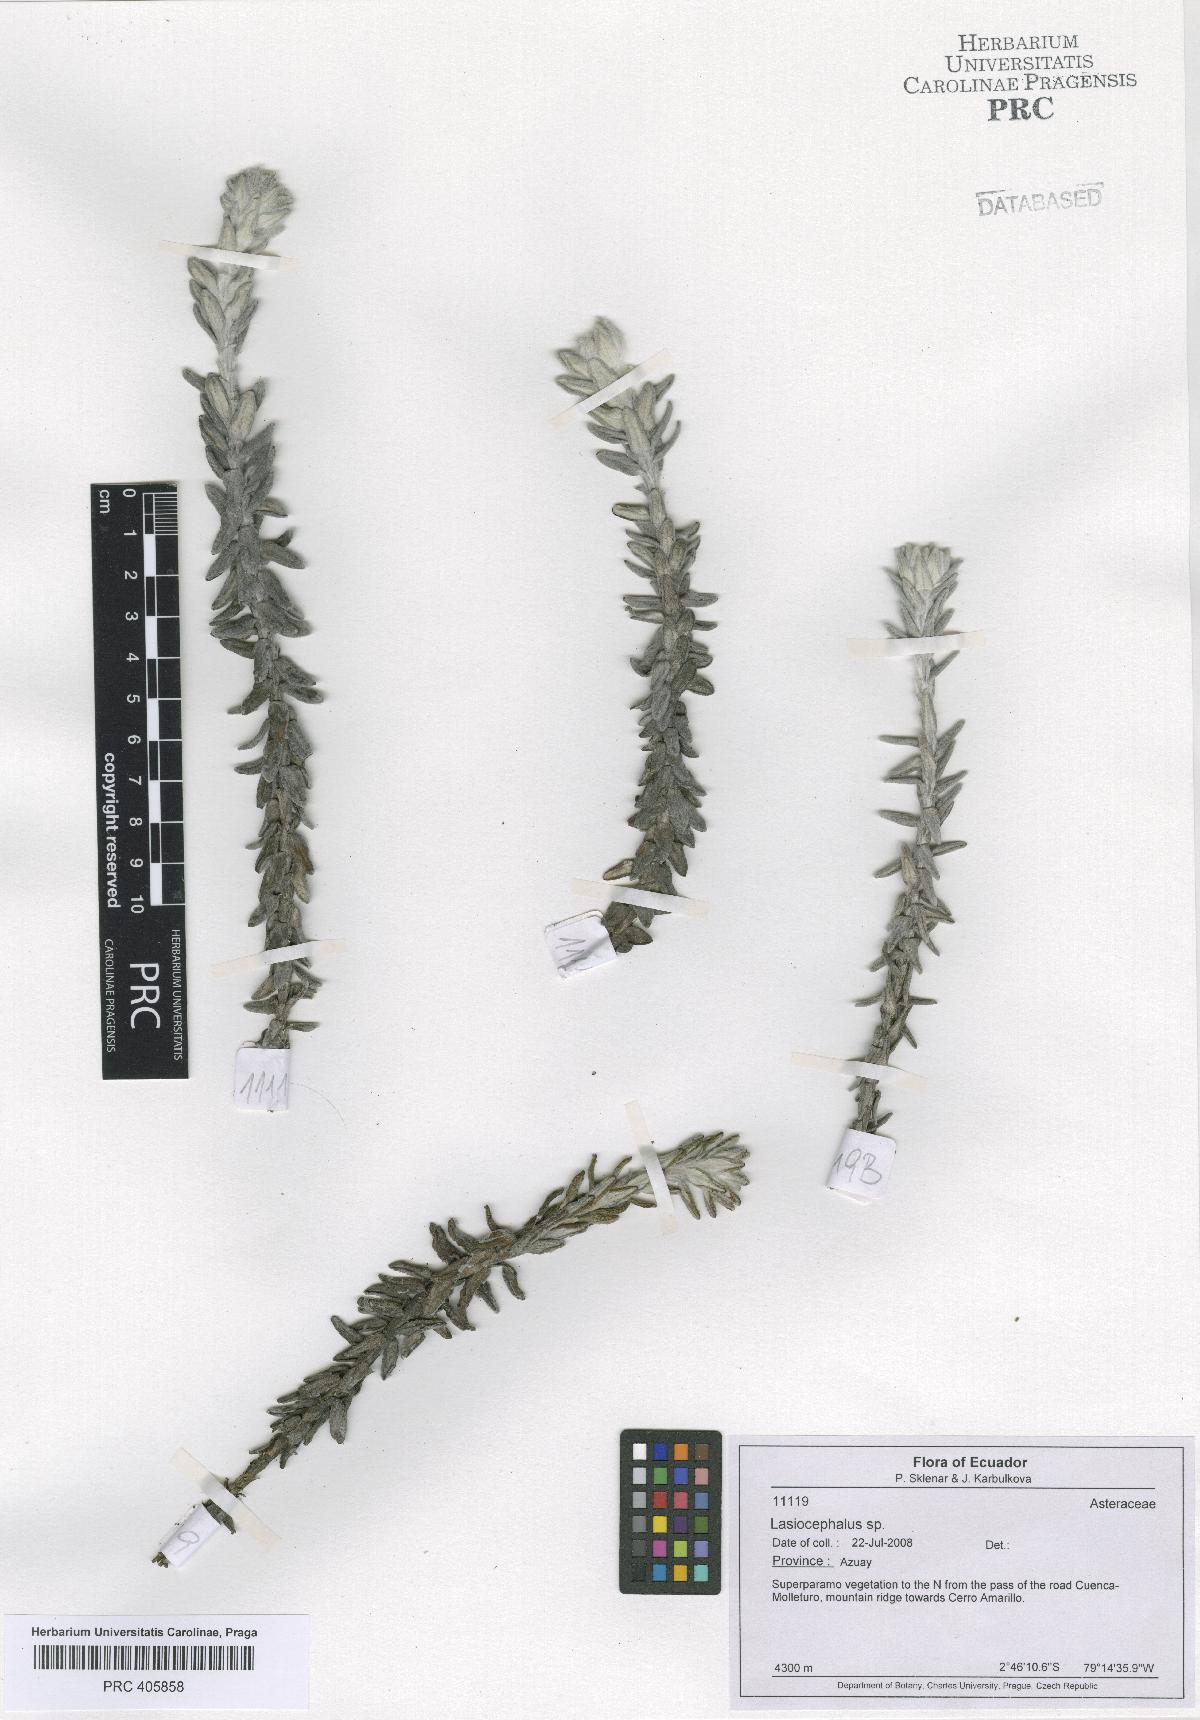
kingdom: Plantae
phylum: Tracheophyta
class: Magnoliopsida
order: Asterales
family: Asteraceae
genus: Lasiocephalus
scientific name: Lasiocephalus
